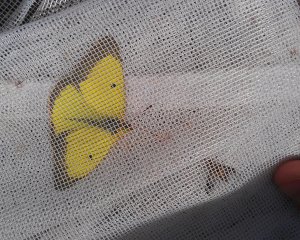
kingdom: Animalia
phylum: Arthropoda
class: Insecta
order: Lepidoptera
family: Pieridae
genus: Colias
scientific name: Colias philodice
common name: Clouded Sulphur
